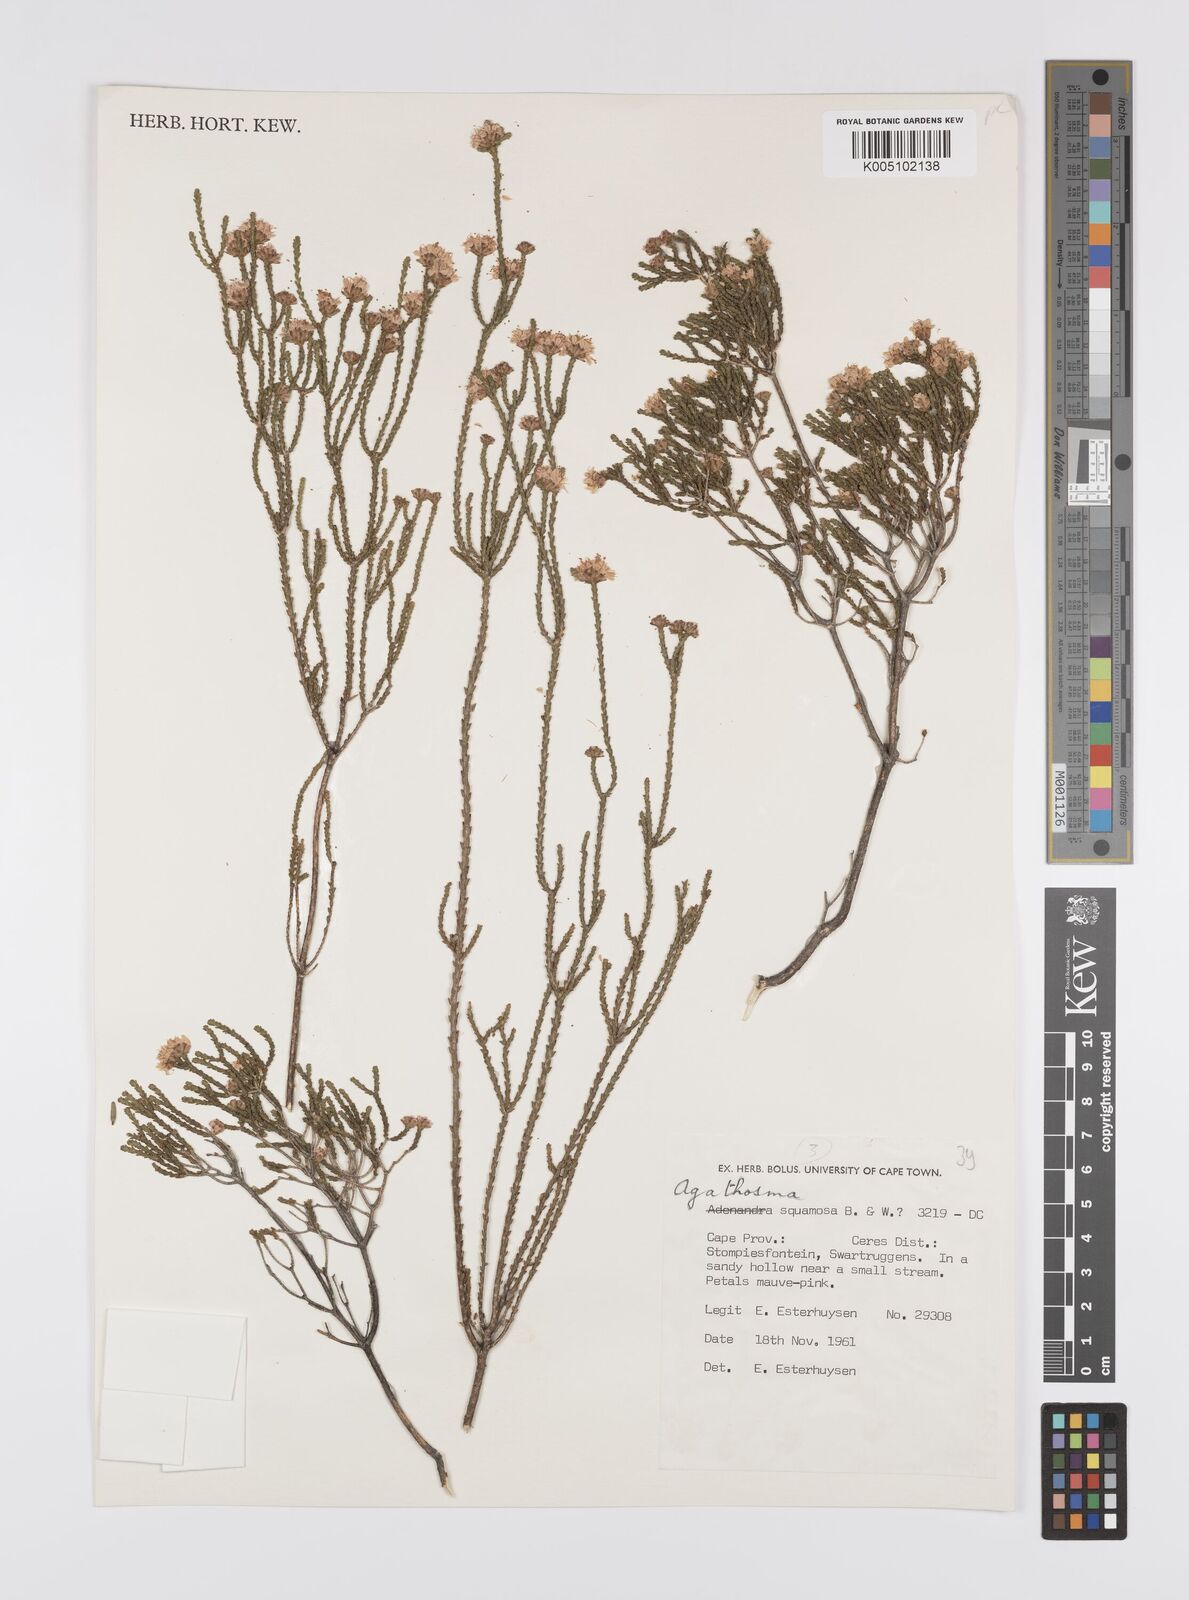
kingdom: Plantae
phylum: Tracheophyta
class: Magnoliopsida
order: Sapindales
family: Rutaceae
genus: Agathosma
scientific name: Agathosma squamosa
